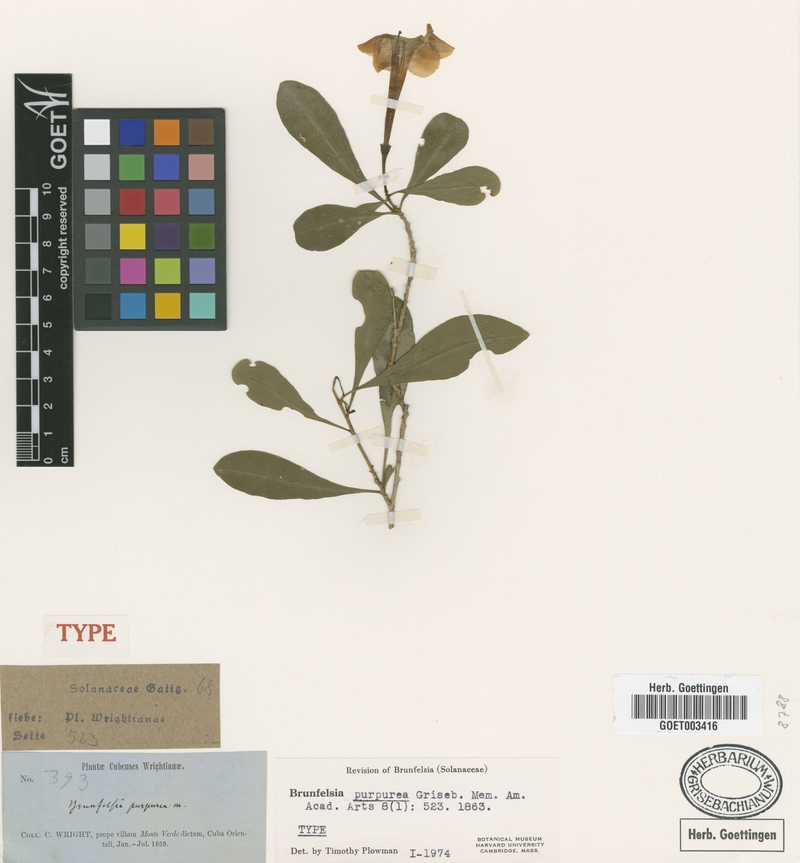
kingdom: Plantae
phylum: Tracheophyta
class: Magnoliopsida
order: Solanales
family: Solanaceae
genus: Brunfelsia
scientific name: Brunfelsia purpurea
